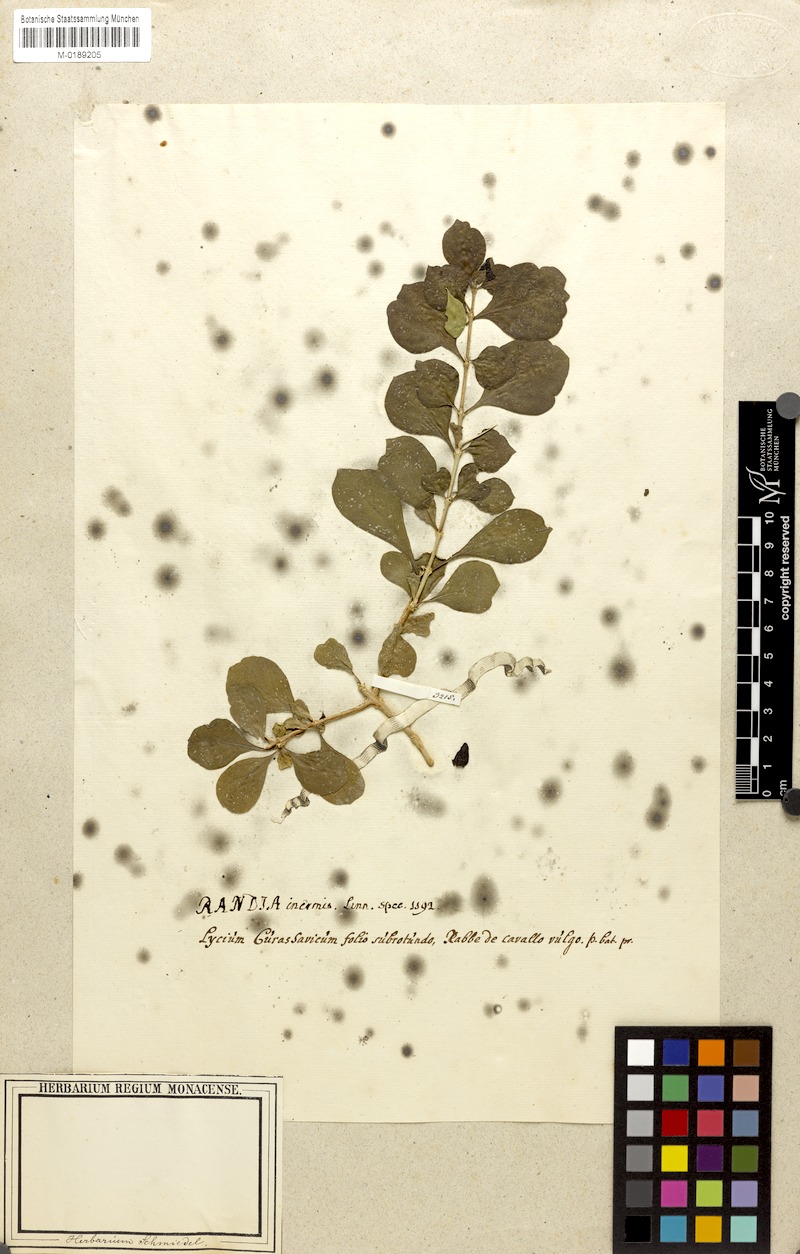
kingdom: Plantae
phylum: Tracheophyta
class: Magnoliopsida
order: Gentianales
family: Rubiaceae
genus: Randia
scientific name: Randia aculeata
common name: Inkberry
